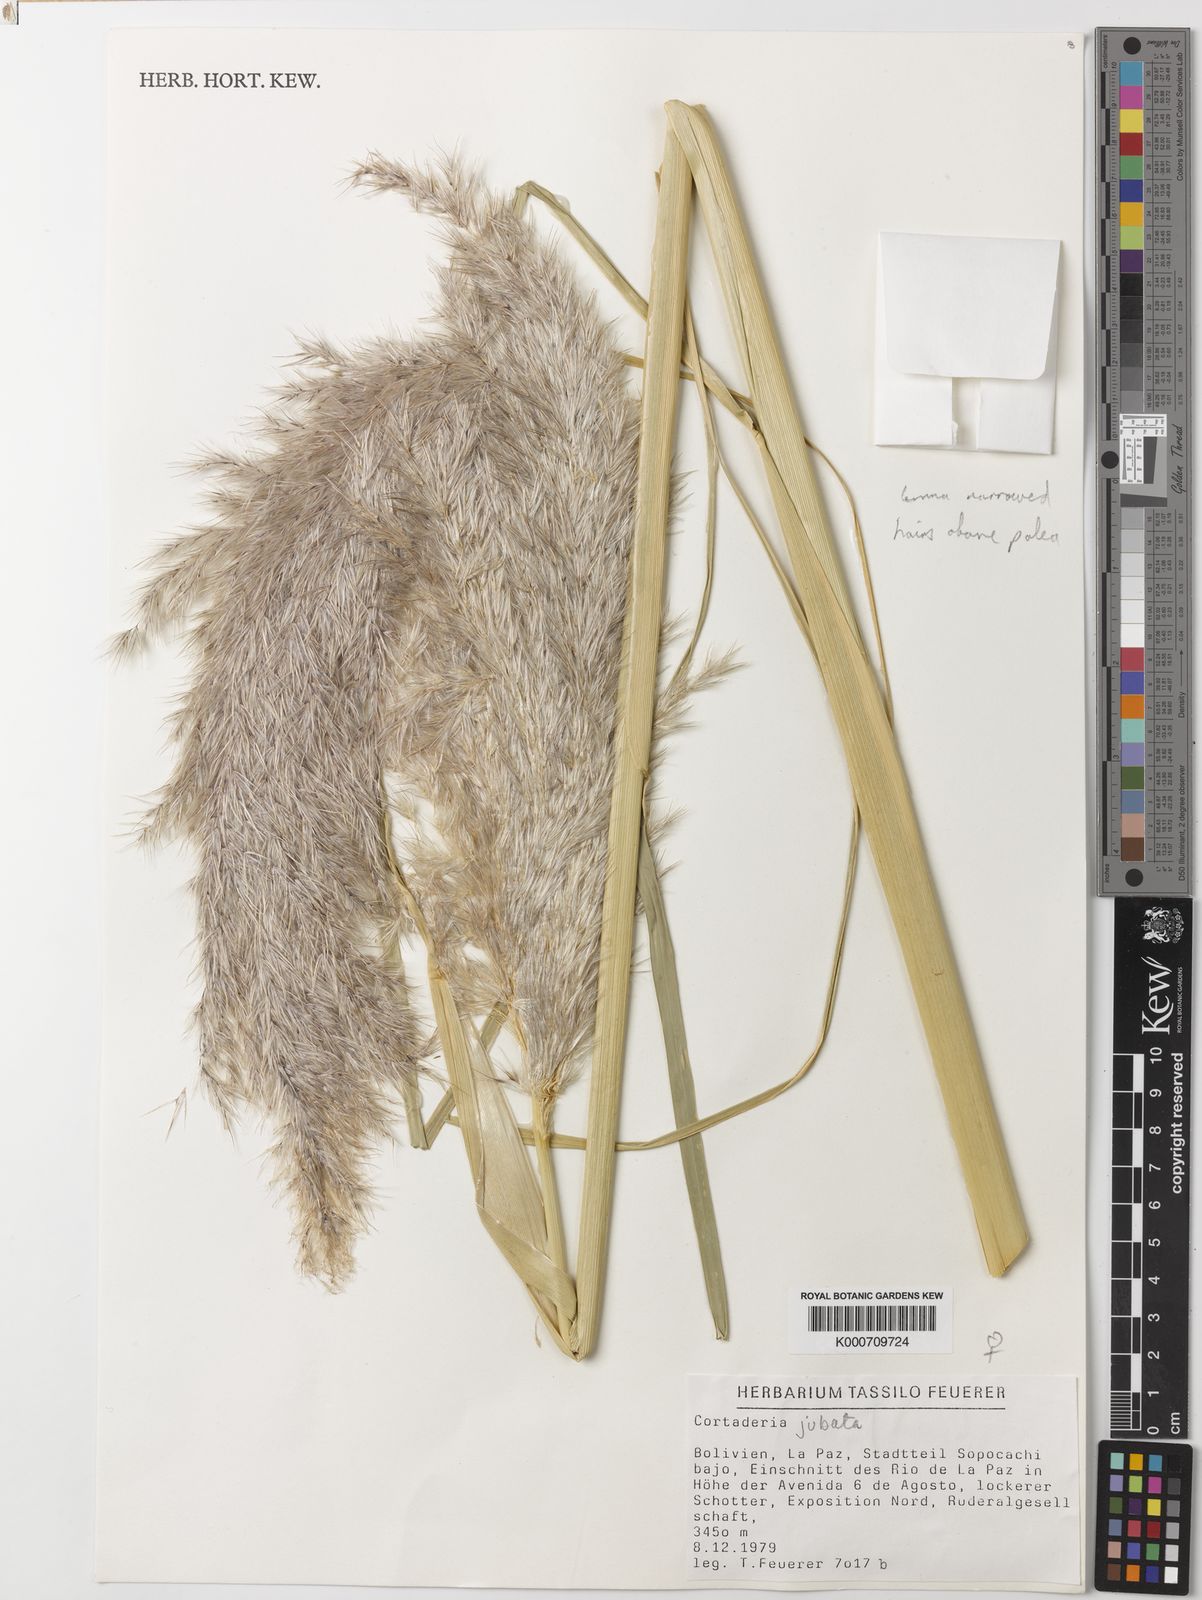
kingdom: Plantae
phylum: Tracheophyta
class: Liliopsida
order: Poales
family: Poaceae
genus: Cortaderia
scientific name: Cortaderia jubata
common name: Purple pampas grass
